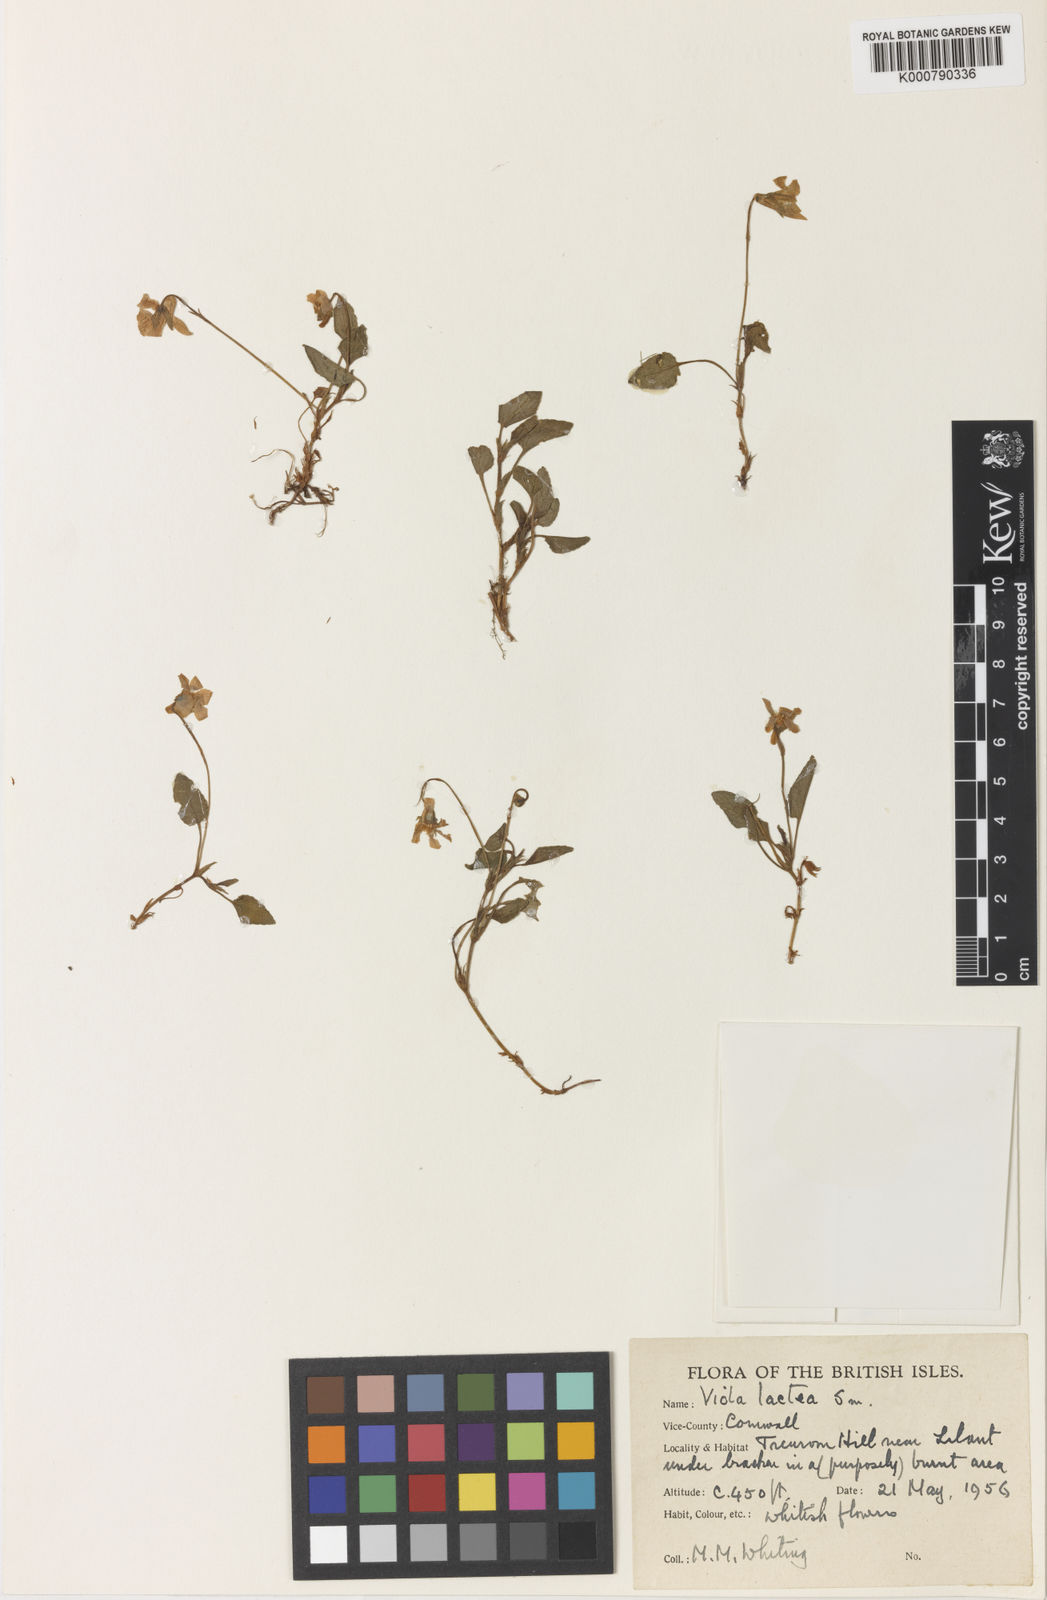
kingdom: Plantae
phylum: Tracheophyta
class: Magnoliopsida
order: Malpighiales
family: Violaceae
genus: Viola
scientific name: Viola lactea
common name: Pale dog-violet
